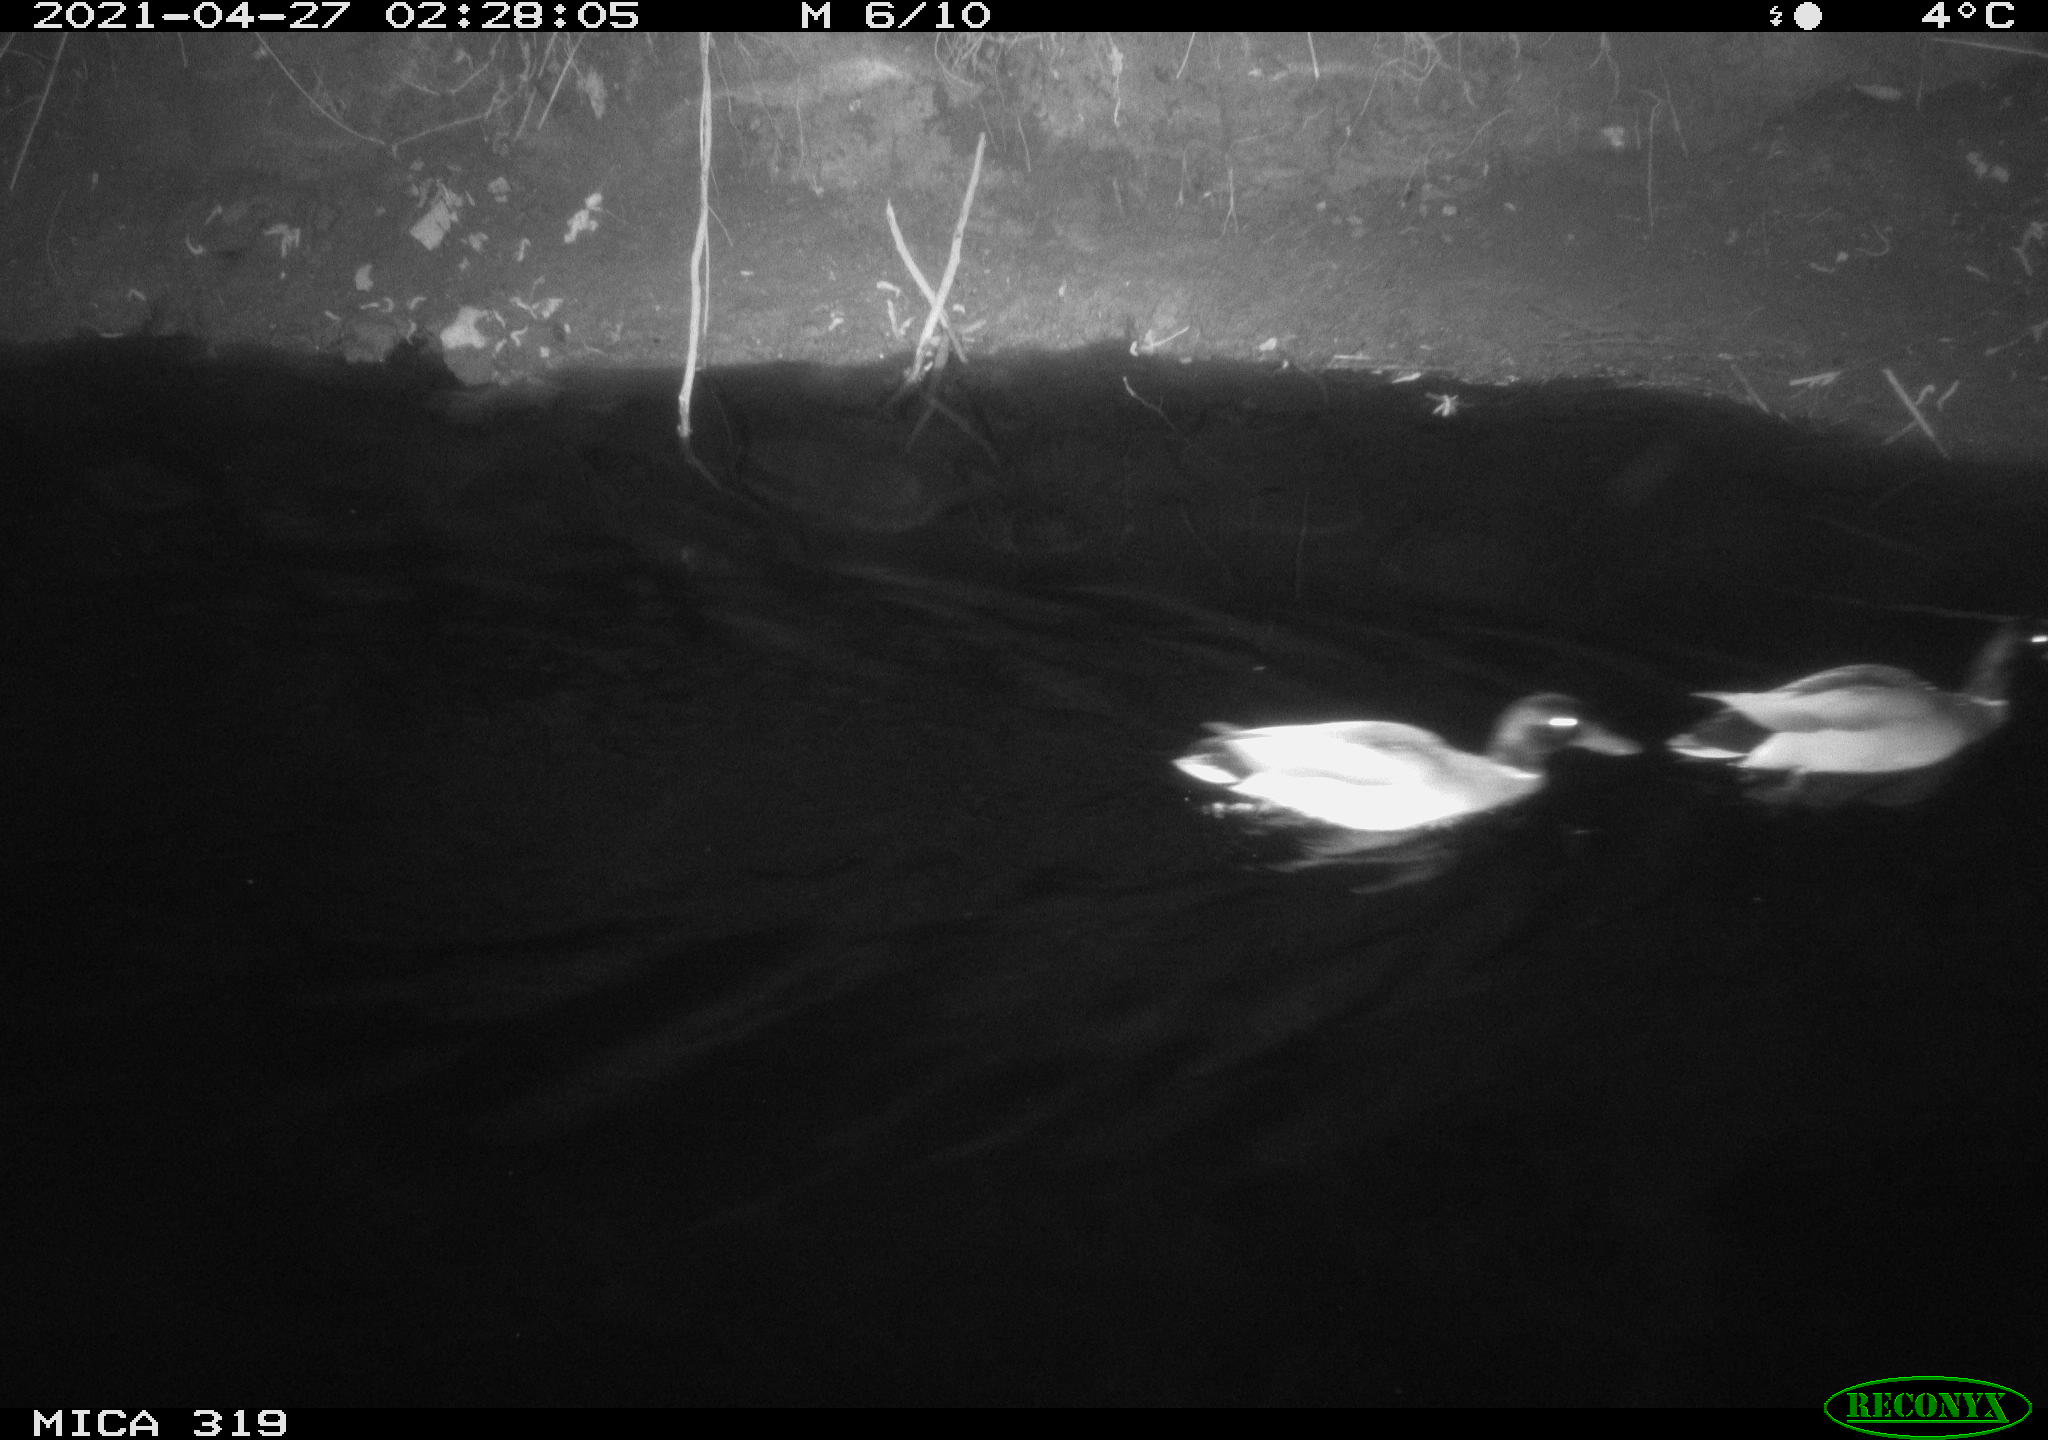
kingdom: Animalia
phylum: Chordata
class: Aves
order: Anseriformes
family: Anatidae
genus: Anas
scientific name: Anas platyrhynchos
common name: Mallard
